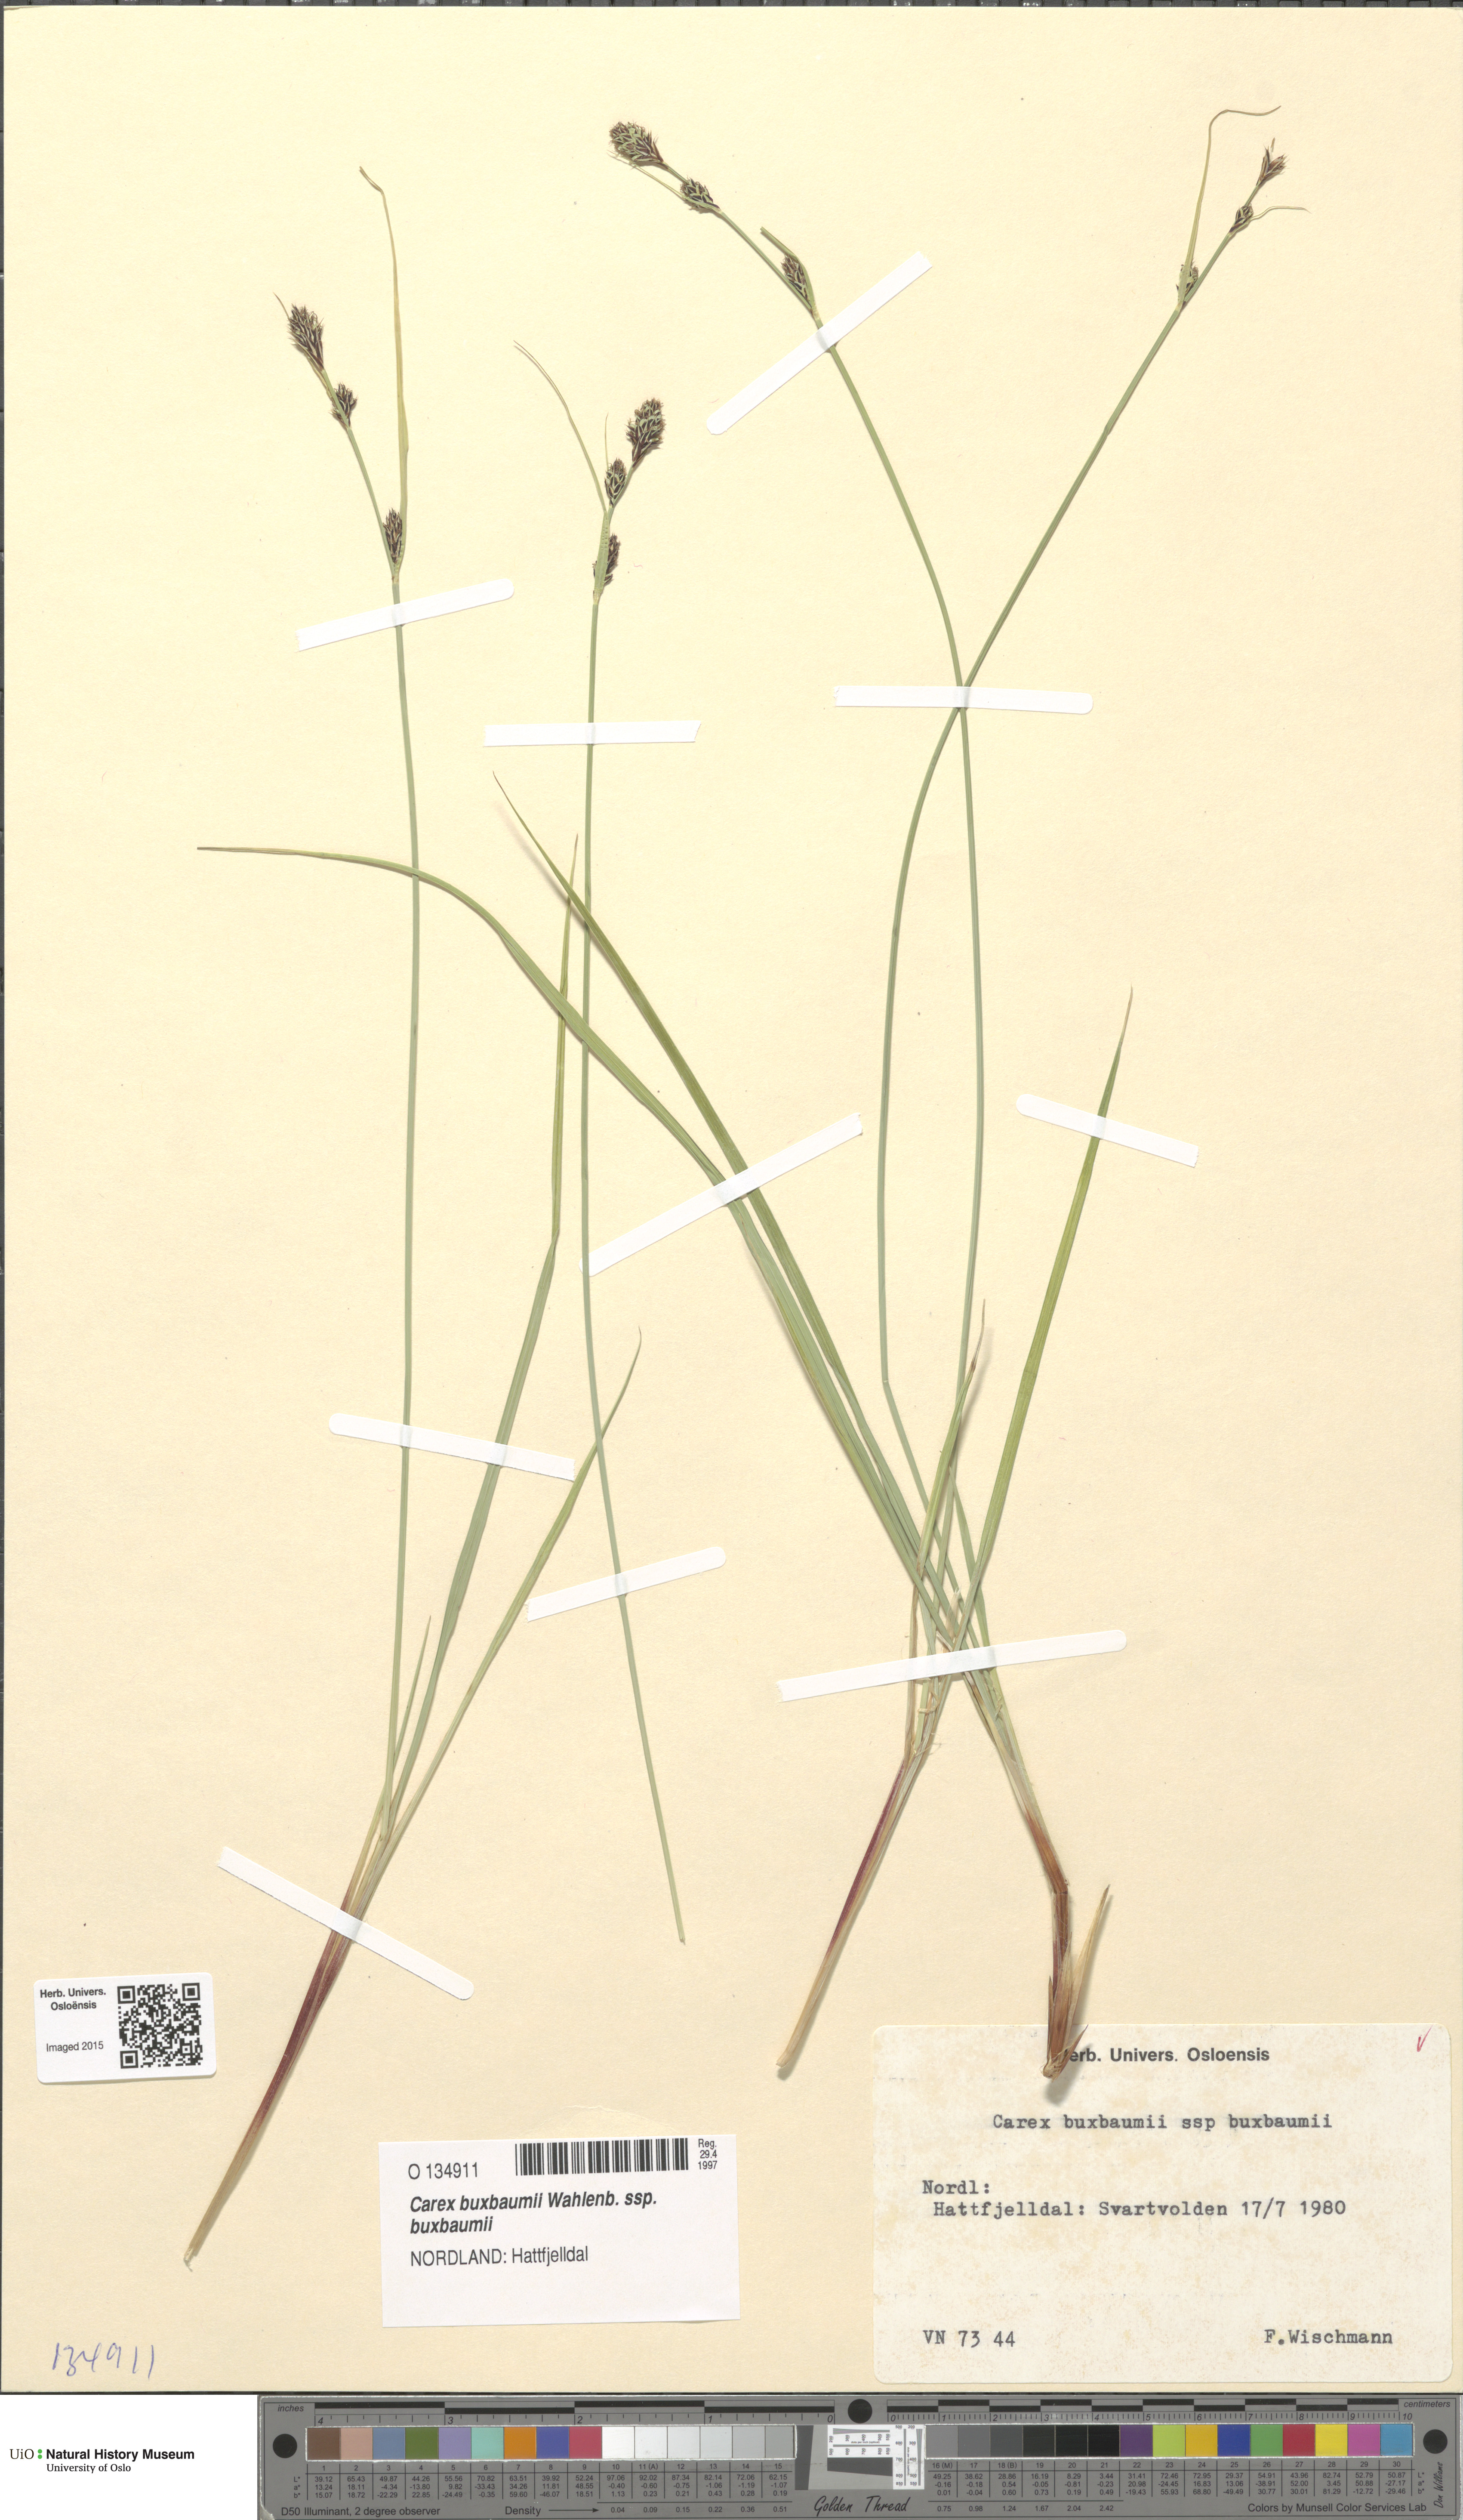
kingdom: Plantae
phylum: Tracheophyta
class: Liliopsida
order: Poales
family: Cyperaceae
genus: Carex
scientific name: Carex buxbaumii
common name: Club sedge
